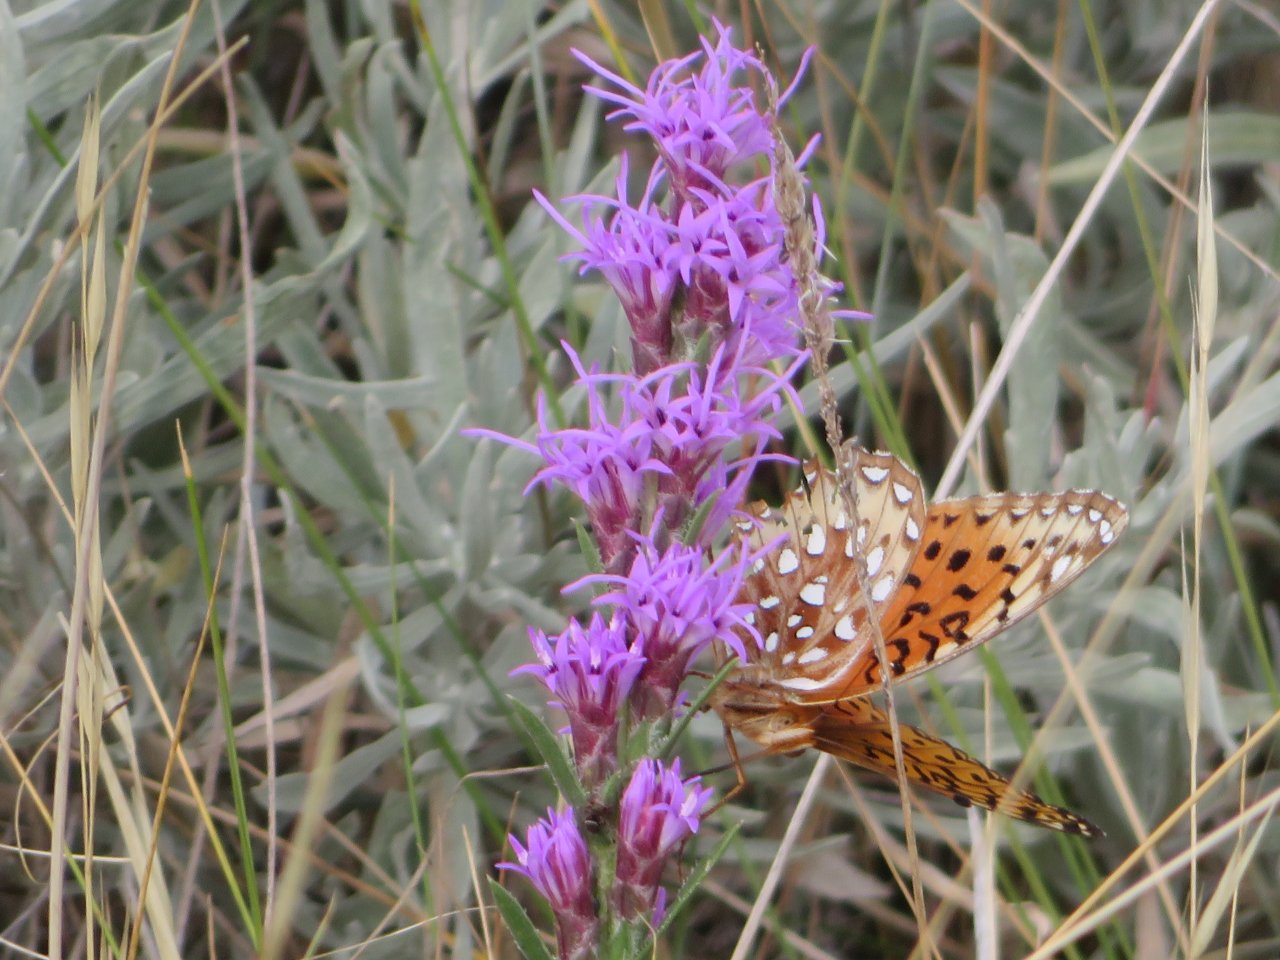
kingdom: Animalia
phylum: Arthropoda
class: Insecta
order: Lepidoptera
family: Nymphalidae
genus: Speyeria
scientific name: Speyeria aphrodite
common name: Aphrodite Fritillary
